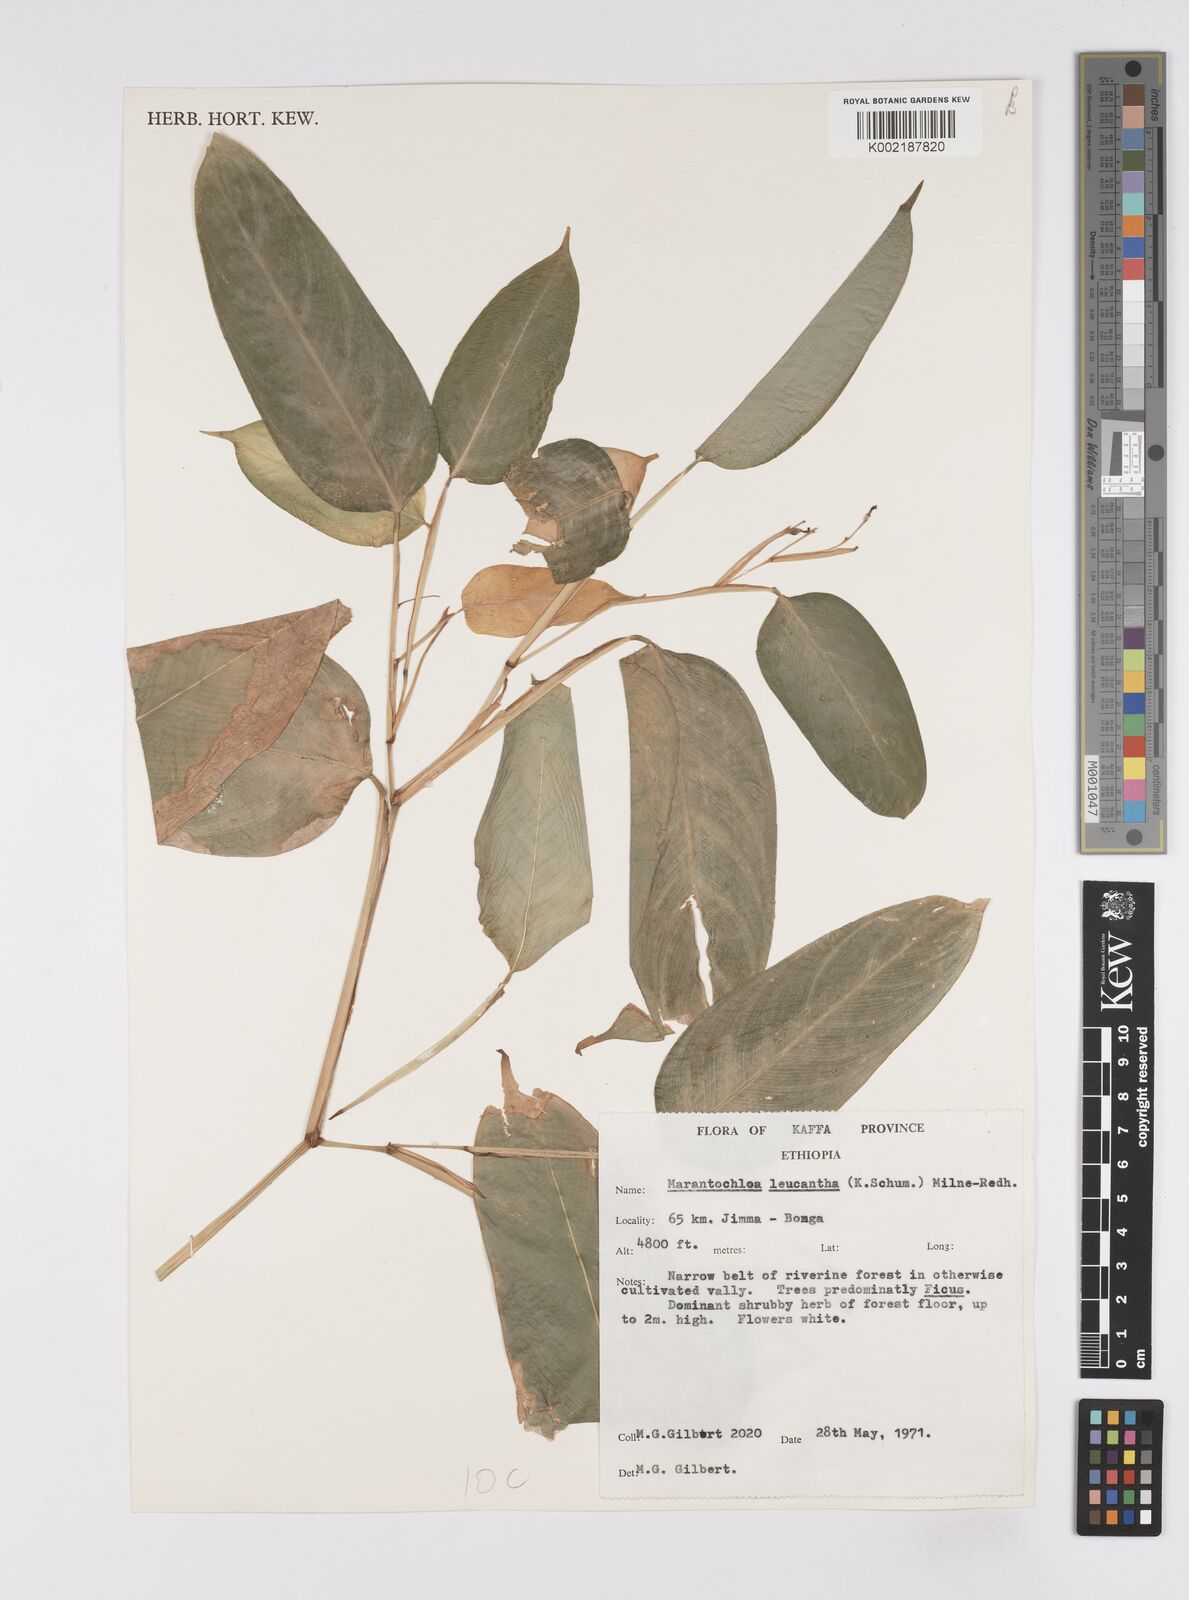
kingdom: Plantae
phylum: Tracheophyta
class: Liliopsida
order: Zingiberales
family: Marantaceae
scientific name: Marantaceae
